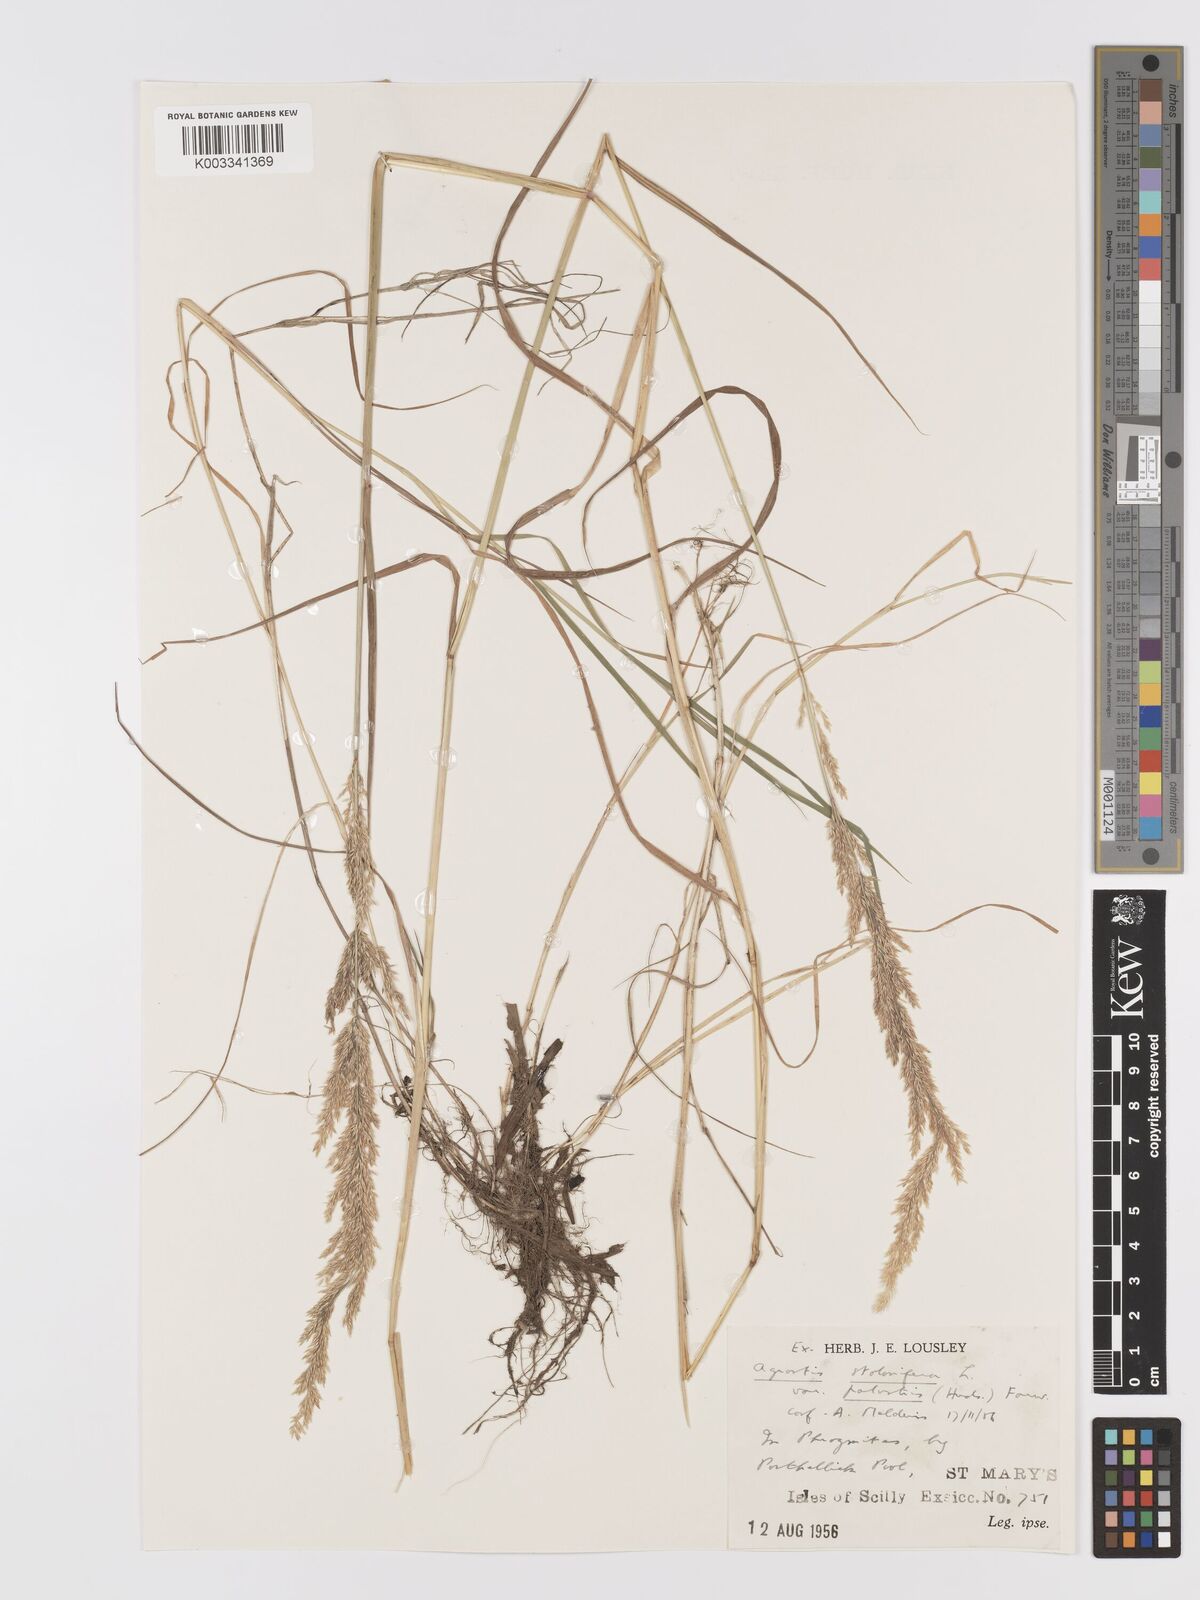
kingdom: Plantae
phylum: Tracheophyta
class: Liliopsida
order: Poales
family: Poaceae
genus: Agrostis
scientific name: Agrostis stolonifera
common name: Creeping bentgrass
